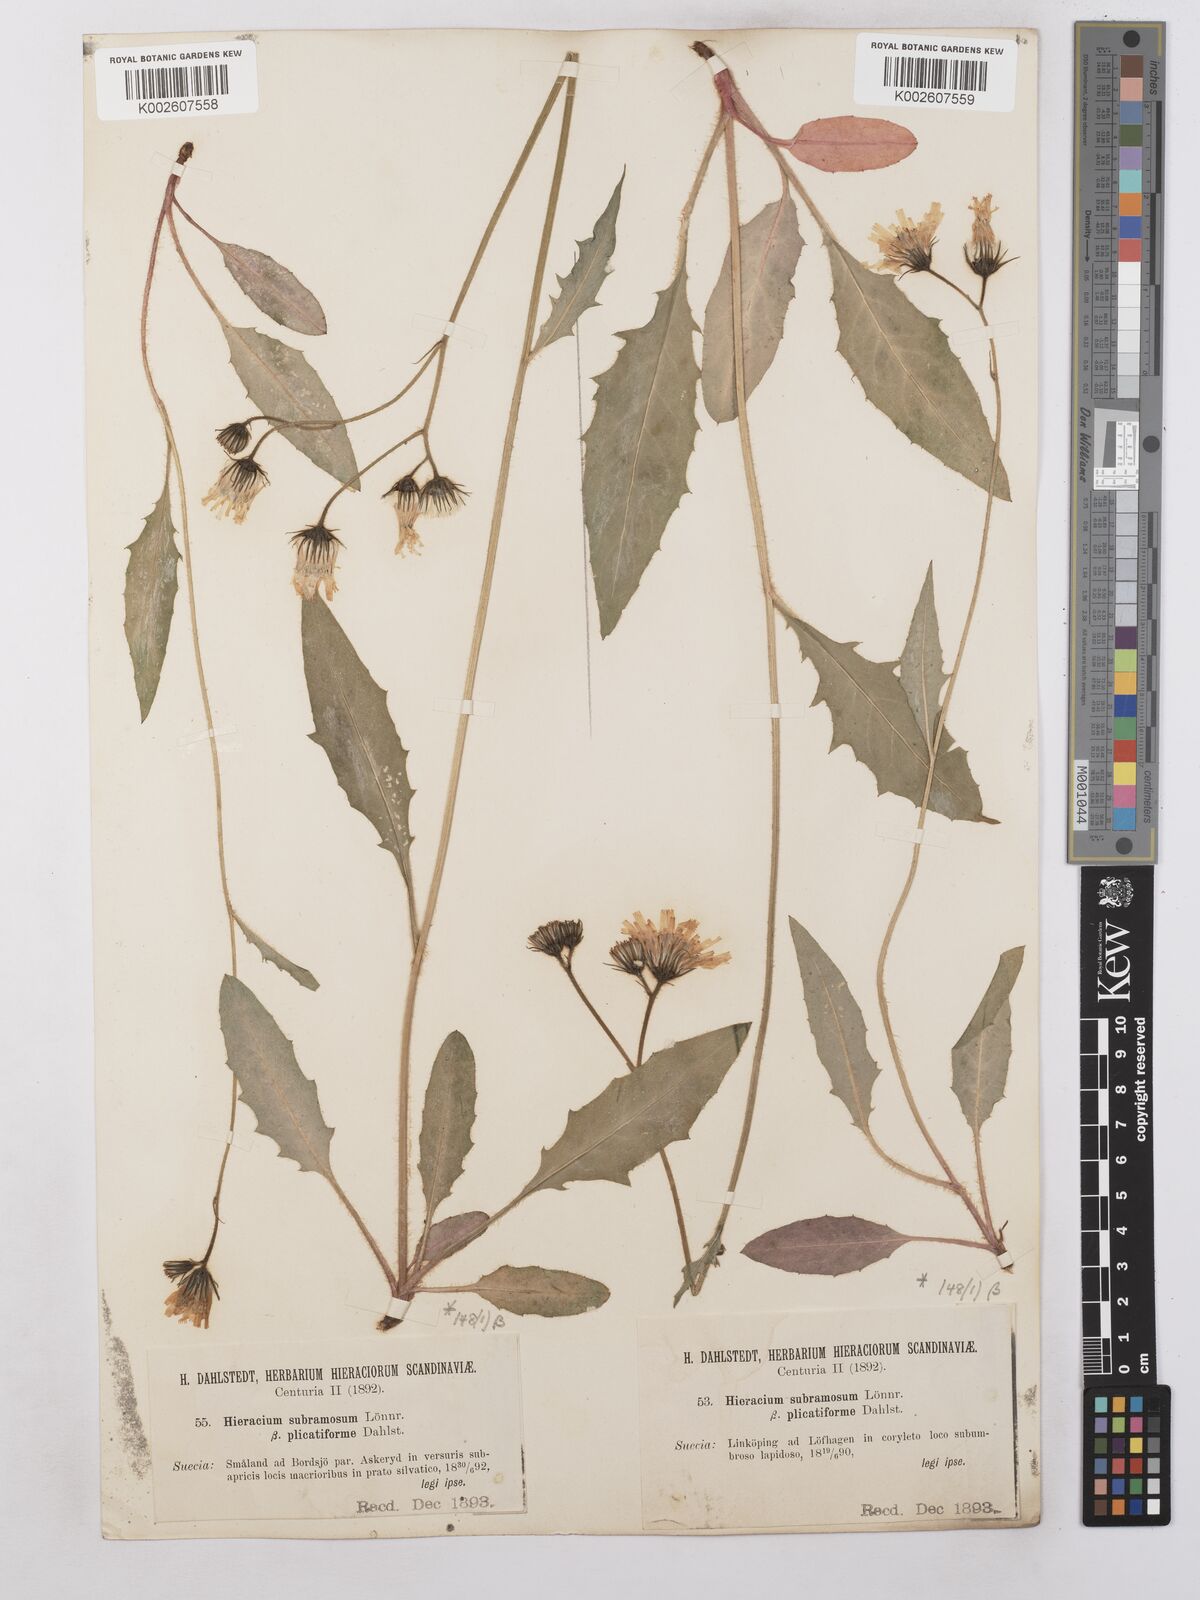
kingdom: Plantae
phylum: Tracheophyta
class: Magnoliopsida
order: Asterales
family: Asteraceae
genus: Hieracium
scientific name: Hieracium subramosum
